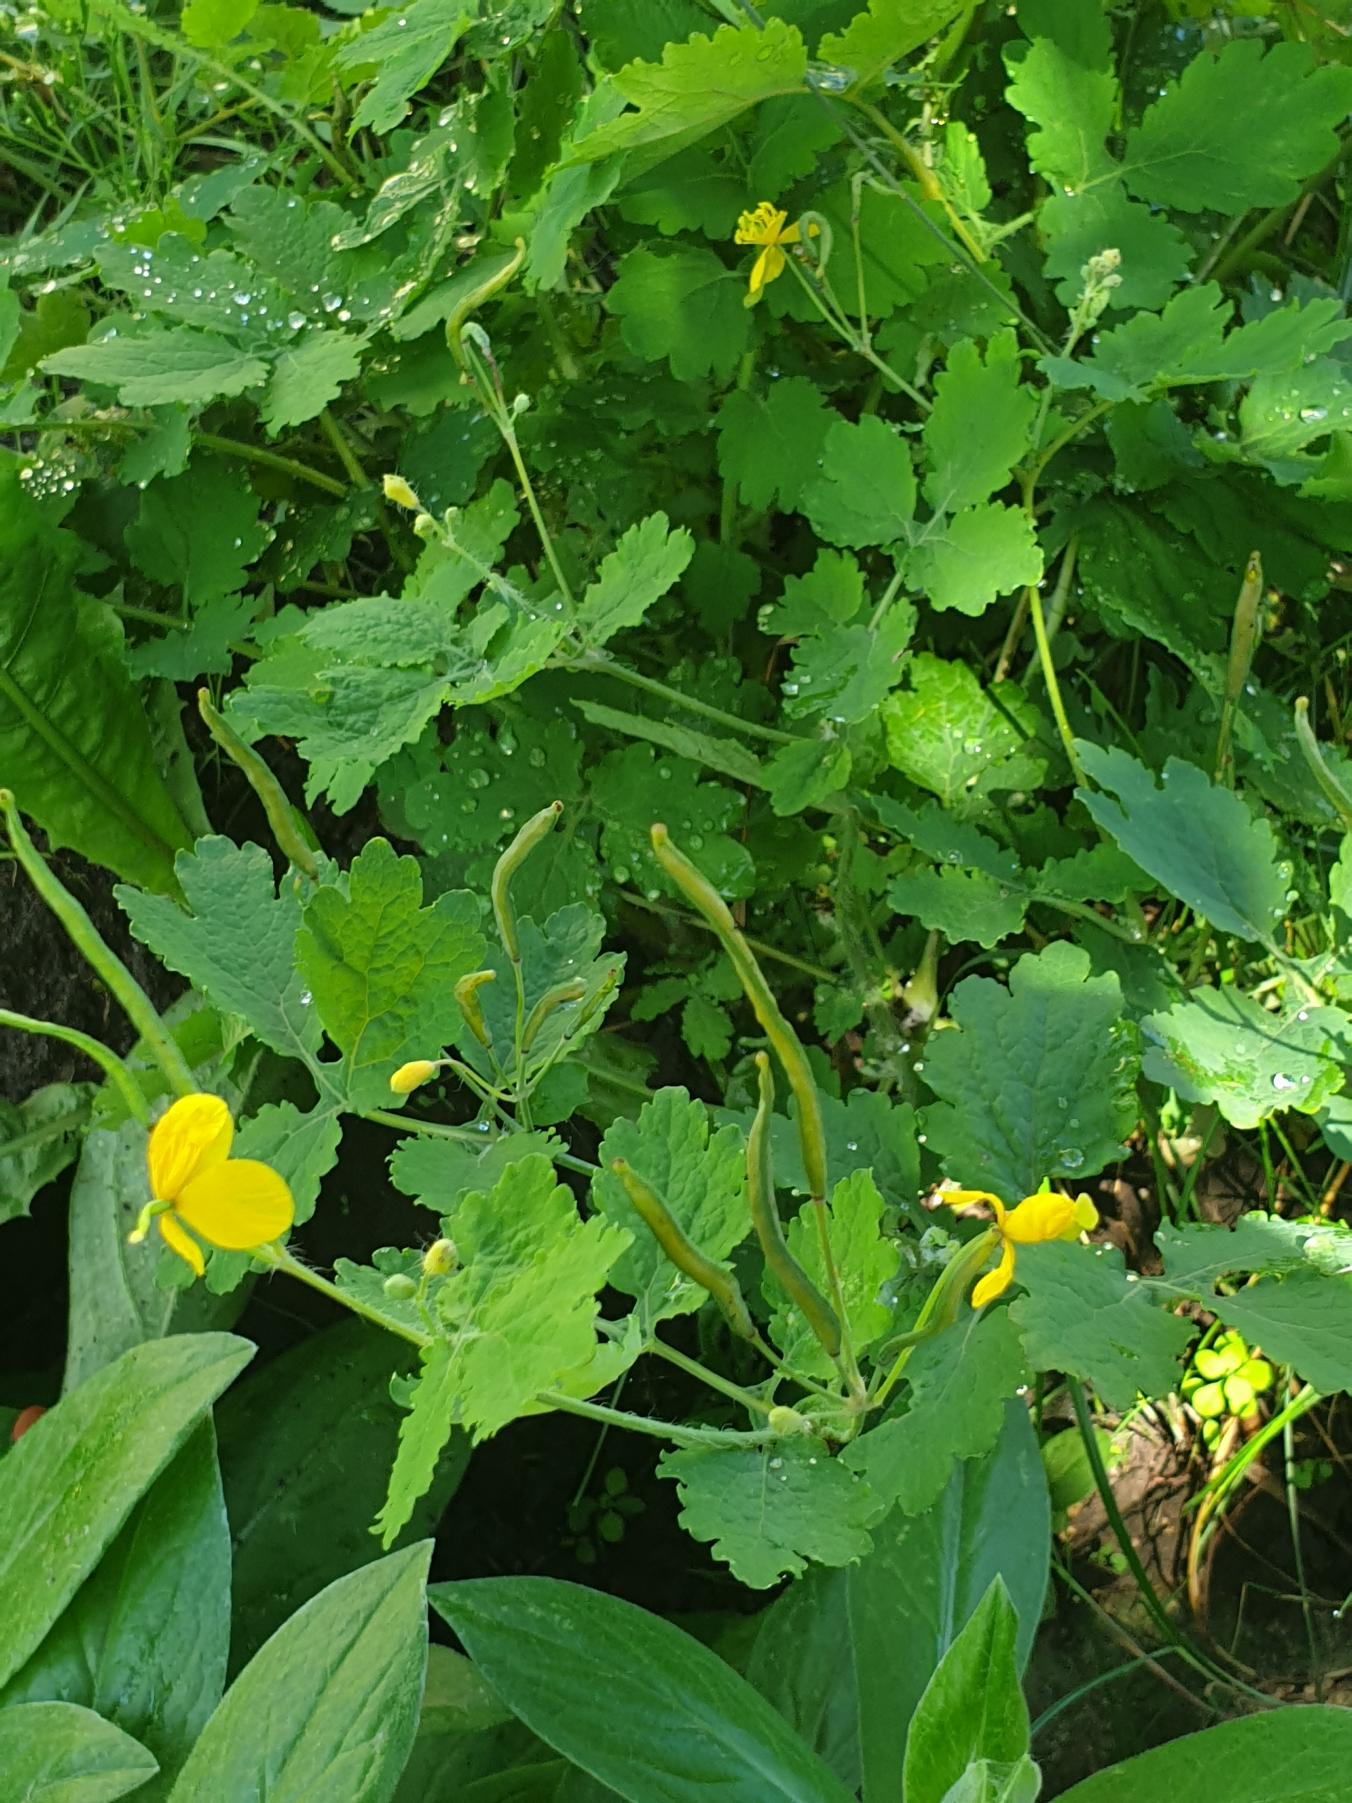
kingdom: Plantae
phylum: Tracheophyta
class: Magnoliopsida
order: Ranunculales
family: Papaveraceae
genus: Chelidonium
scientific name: Chelidonium majus
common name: Svaleurt
